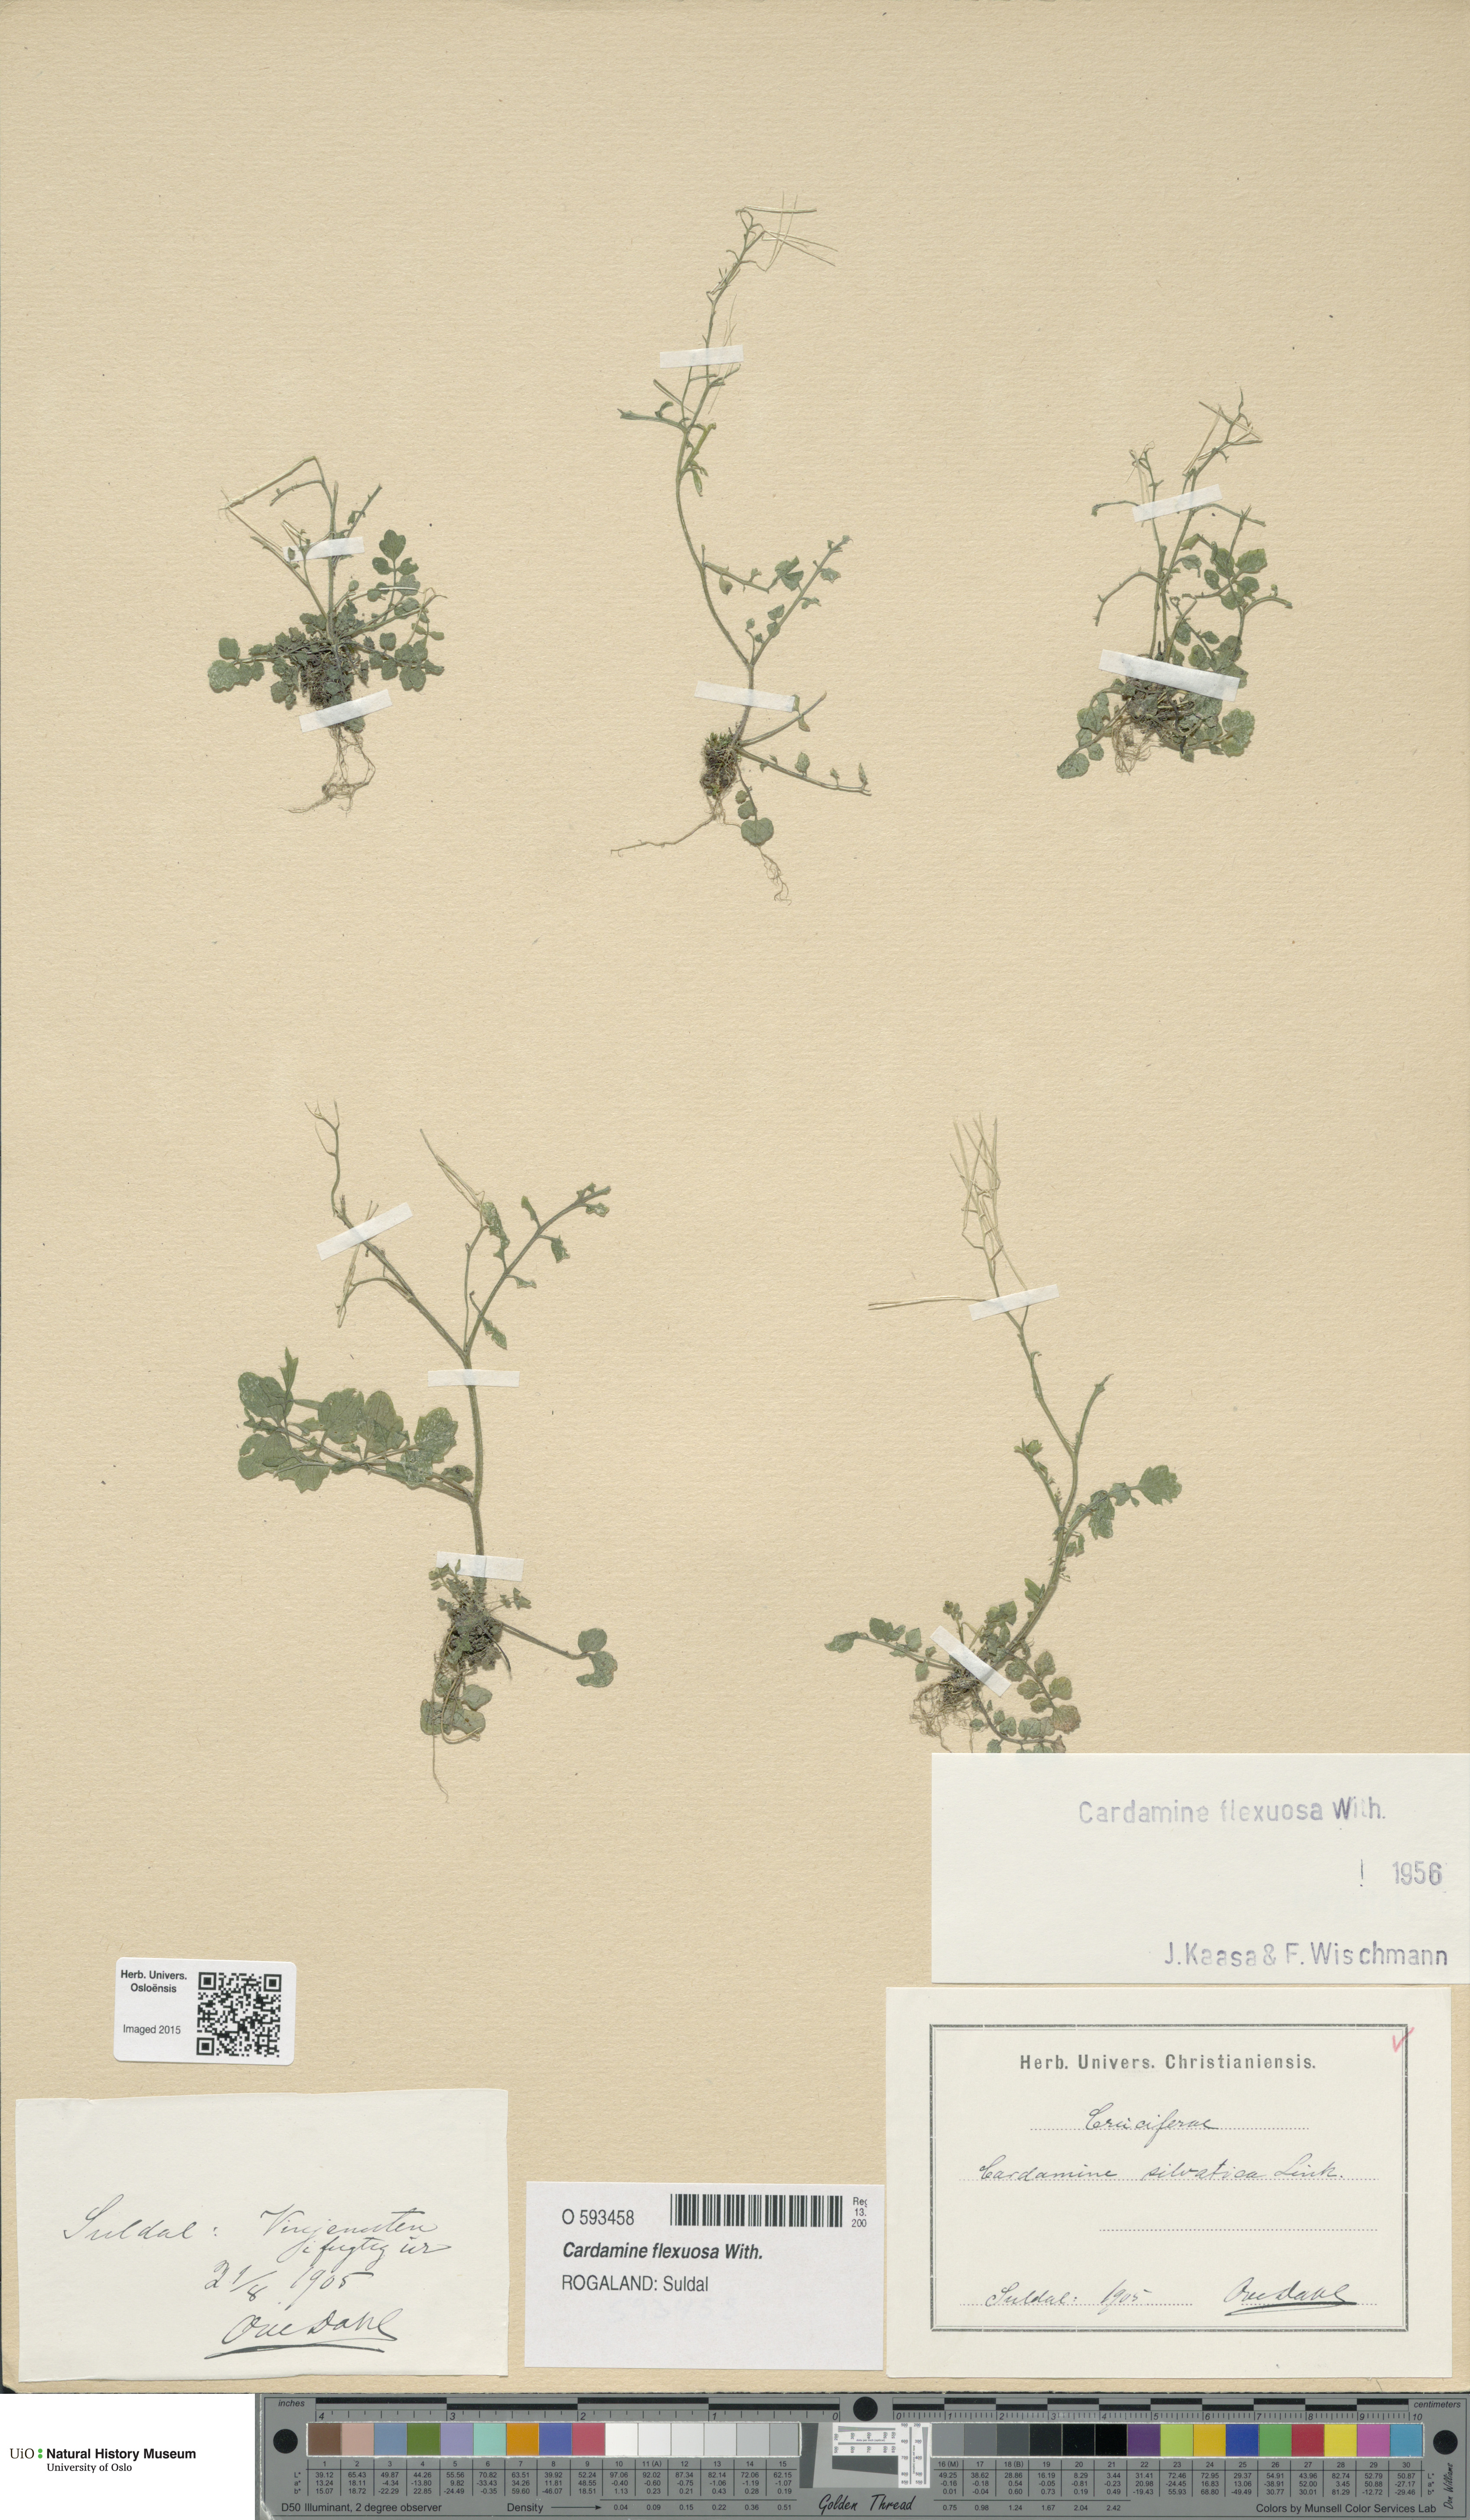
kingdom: Plantae
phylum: Tracheophyta
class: Magnoliopsida
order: Brassicales
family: Brassicaceae
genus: Cardamine
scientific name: Cardamine flexuosa
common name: Woodland bittercress
